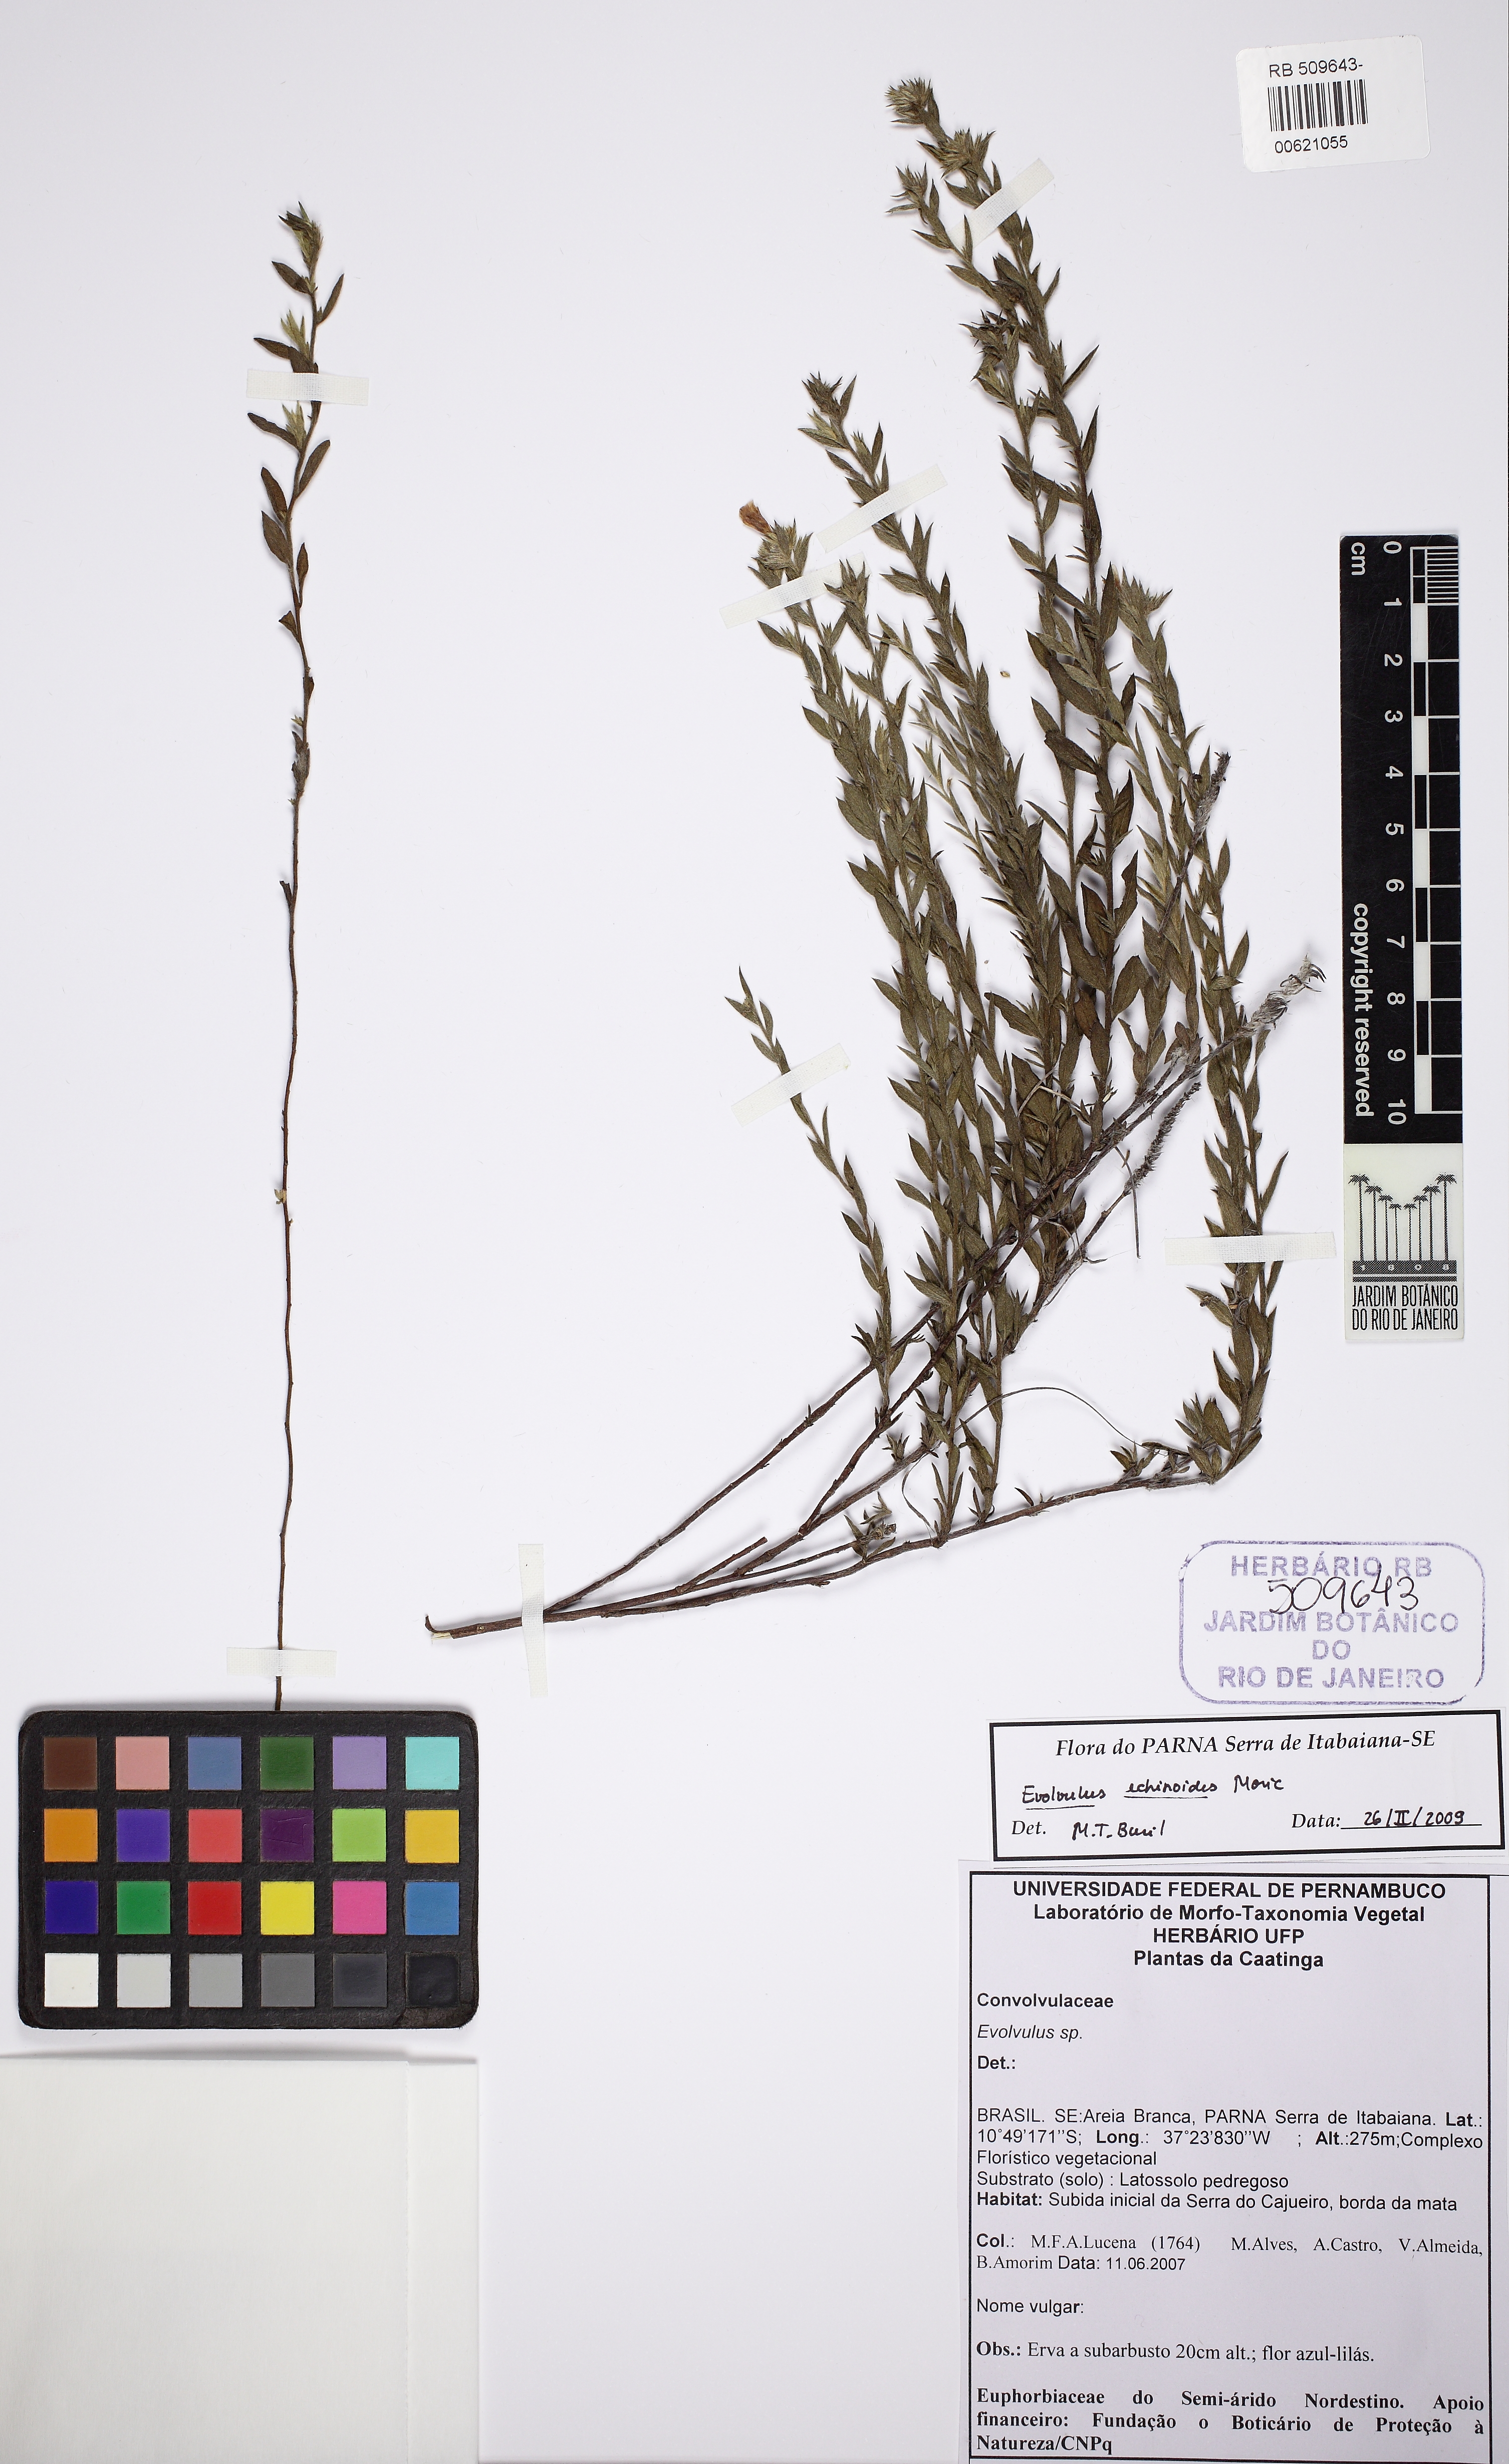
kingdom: Plantae
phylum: Tracheophyta
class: Magnoliopsida
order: Solanales
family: Convolvulaceae
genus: Evolvulus
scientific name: Evolvulus echioides
